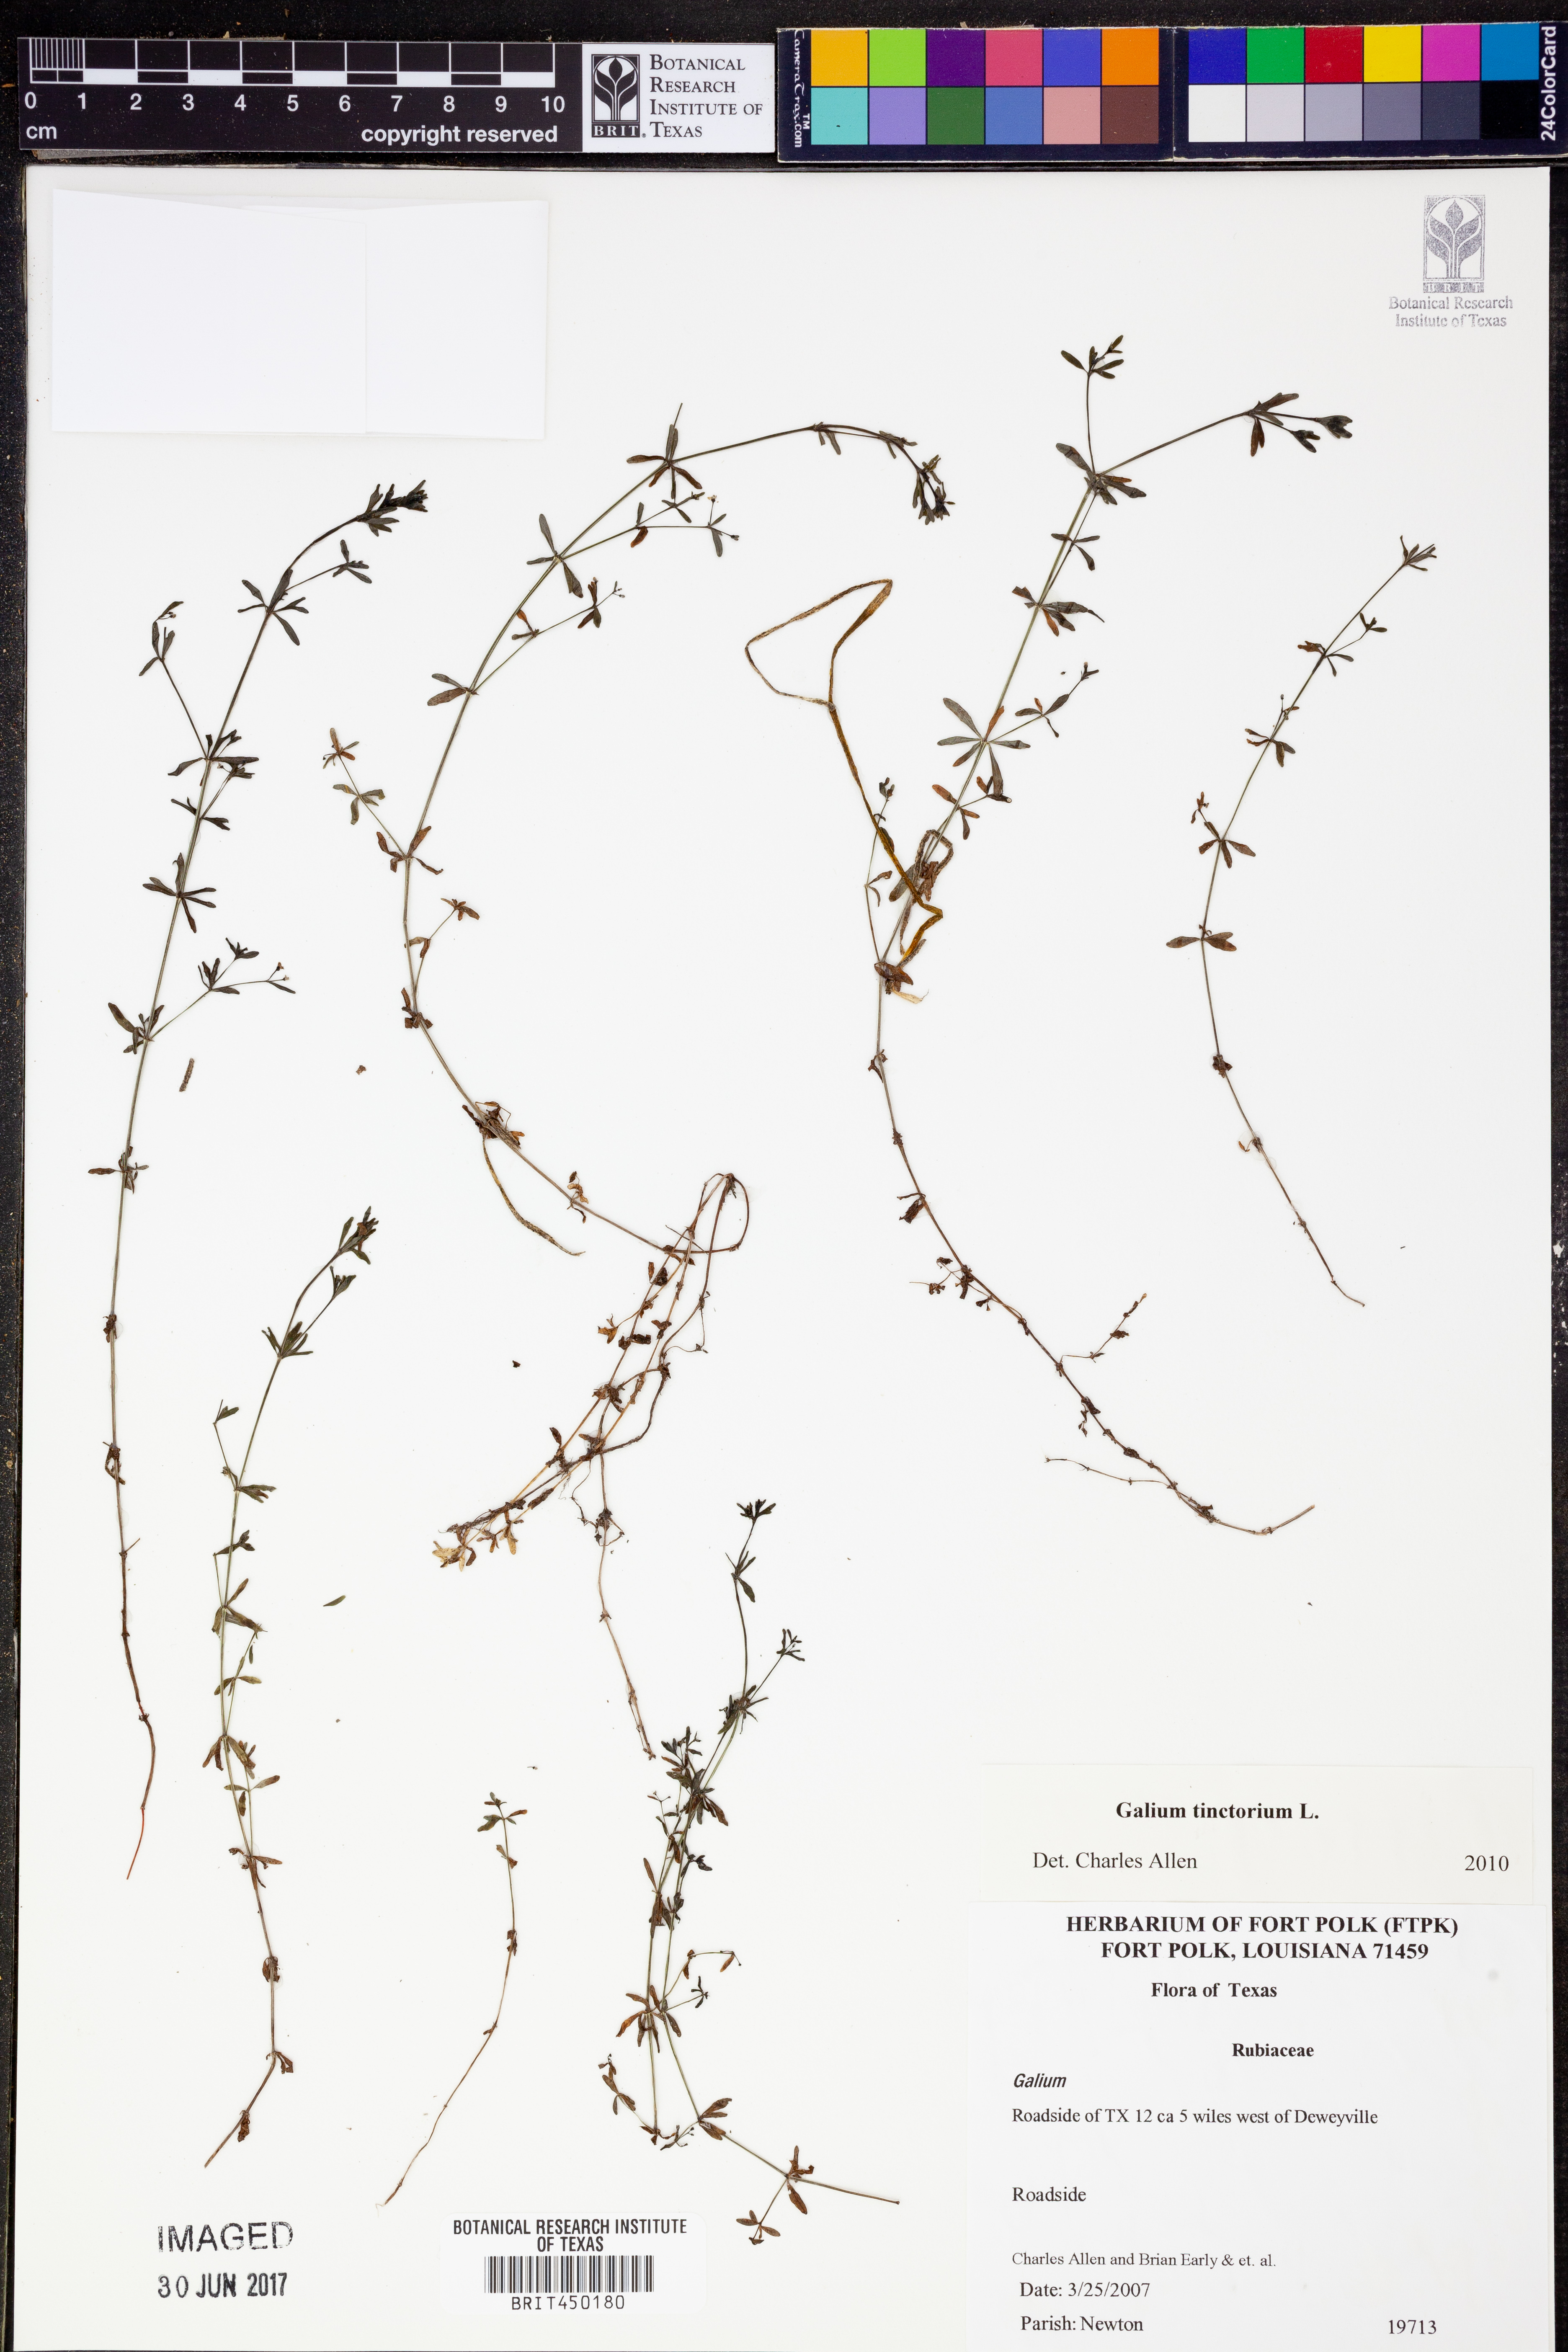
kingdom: Plantae
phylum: Tracheophyta
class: Magnoliopsida
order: Gentianales
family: Rubiaceae
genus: Asperula
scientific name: Asperula tinctoria
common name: Dyer's woodruff
